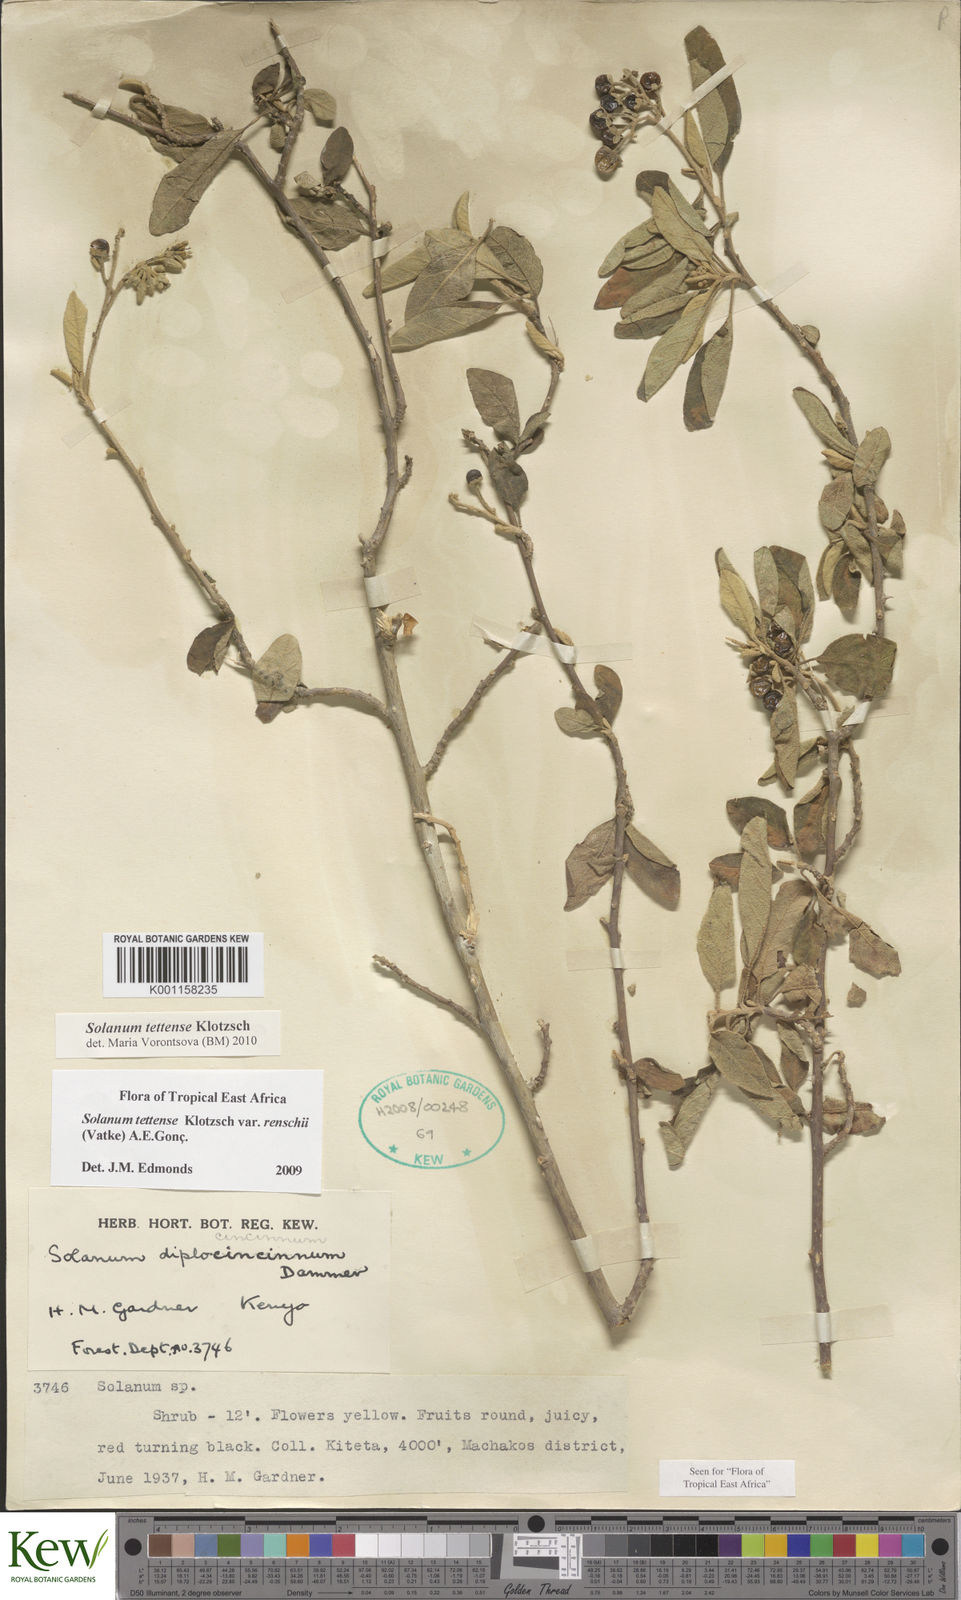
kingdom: Plantae
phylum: Tracheophyta
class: Magnoliopsida
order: Solanales
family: Solanaceae
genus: Solanum
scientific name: Solanum tettense
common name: Mozambique bitter apple
